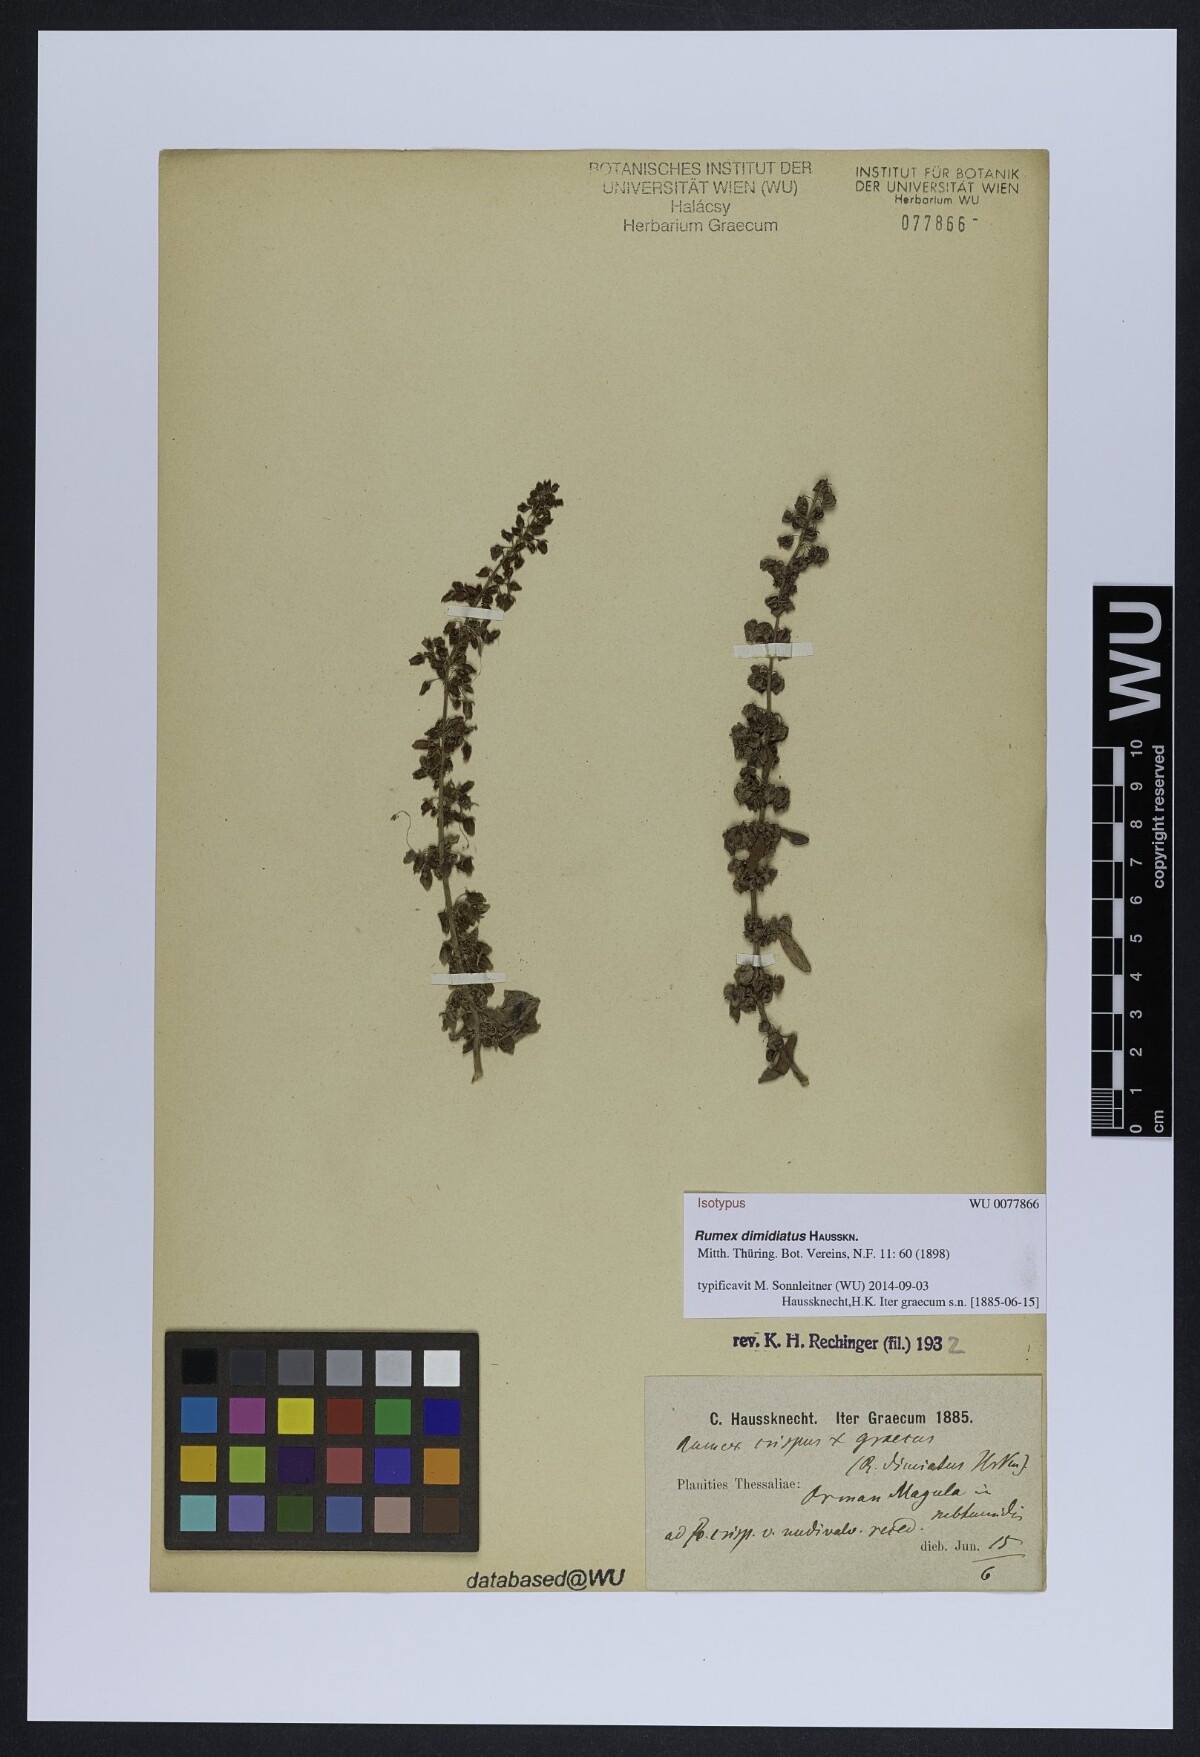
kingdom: Plantae
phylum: Tracheophyta
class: Magnoliopsida
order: Caryophyllales
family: Polygonaceae
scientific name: Polygonaceae
